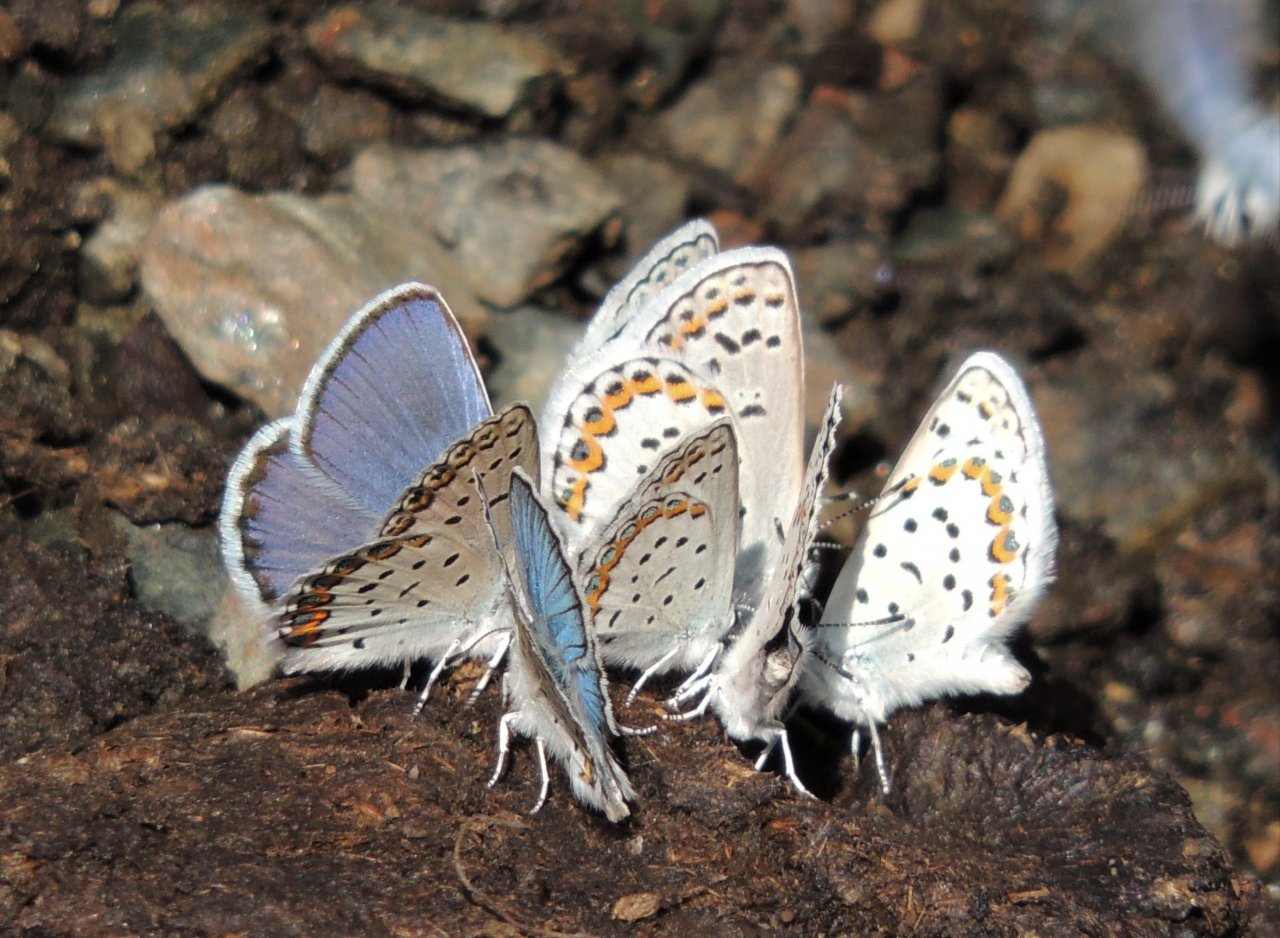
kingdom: Animalia
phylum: Arthropoda
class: Insecta
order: Lepidoptera
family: Lycaenidae
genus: Lycaeides
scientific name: Lycaeides melissa
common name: Melissa Blue
